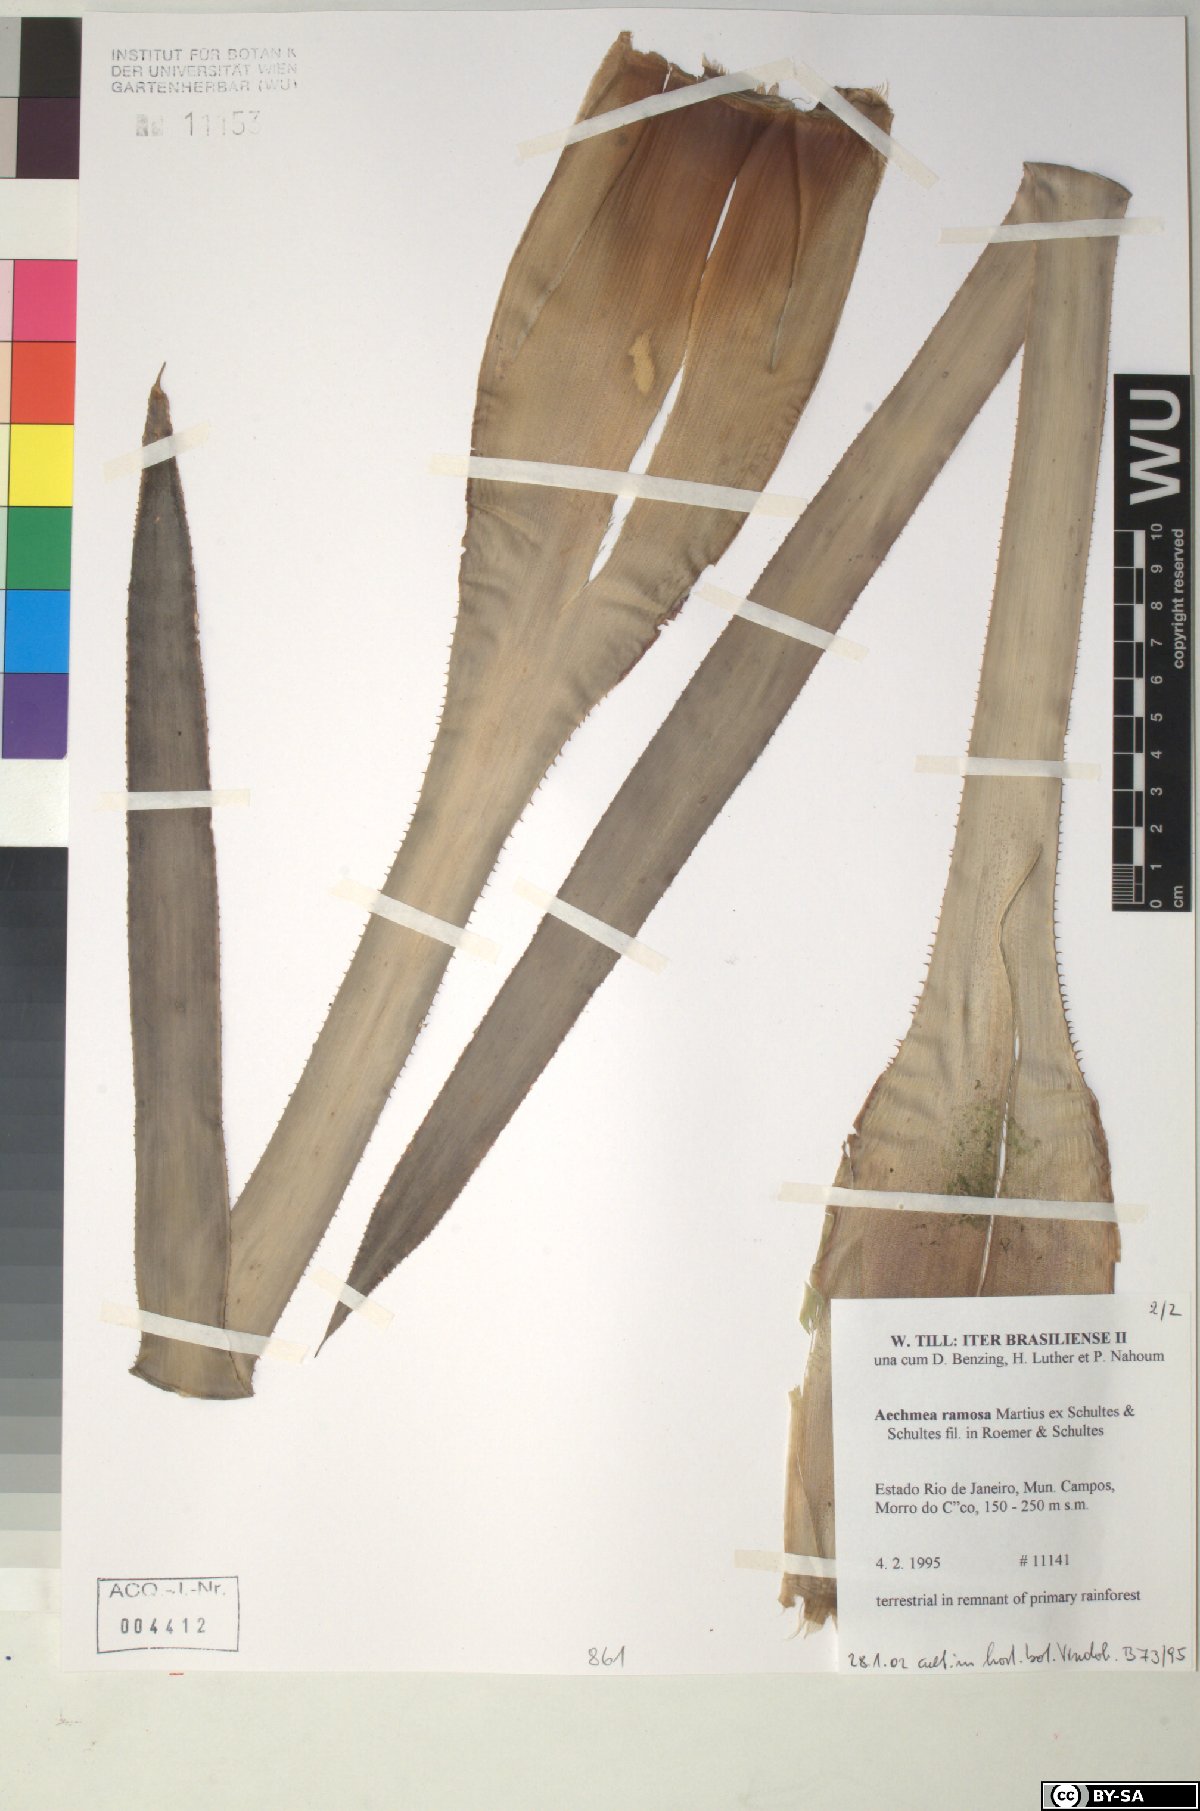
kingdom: Plantae
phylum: Tracheophyta
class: Liliopsida
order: Poales
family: Bromeliaceae
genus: Aechmea
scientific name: Aechmea ramosa
